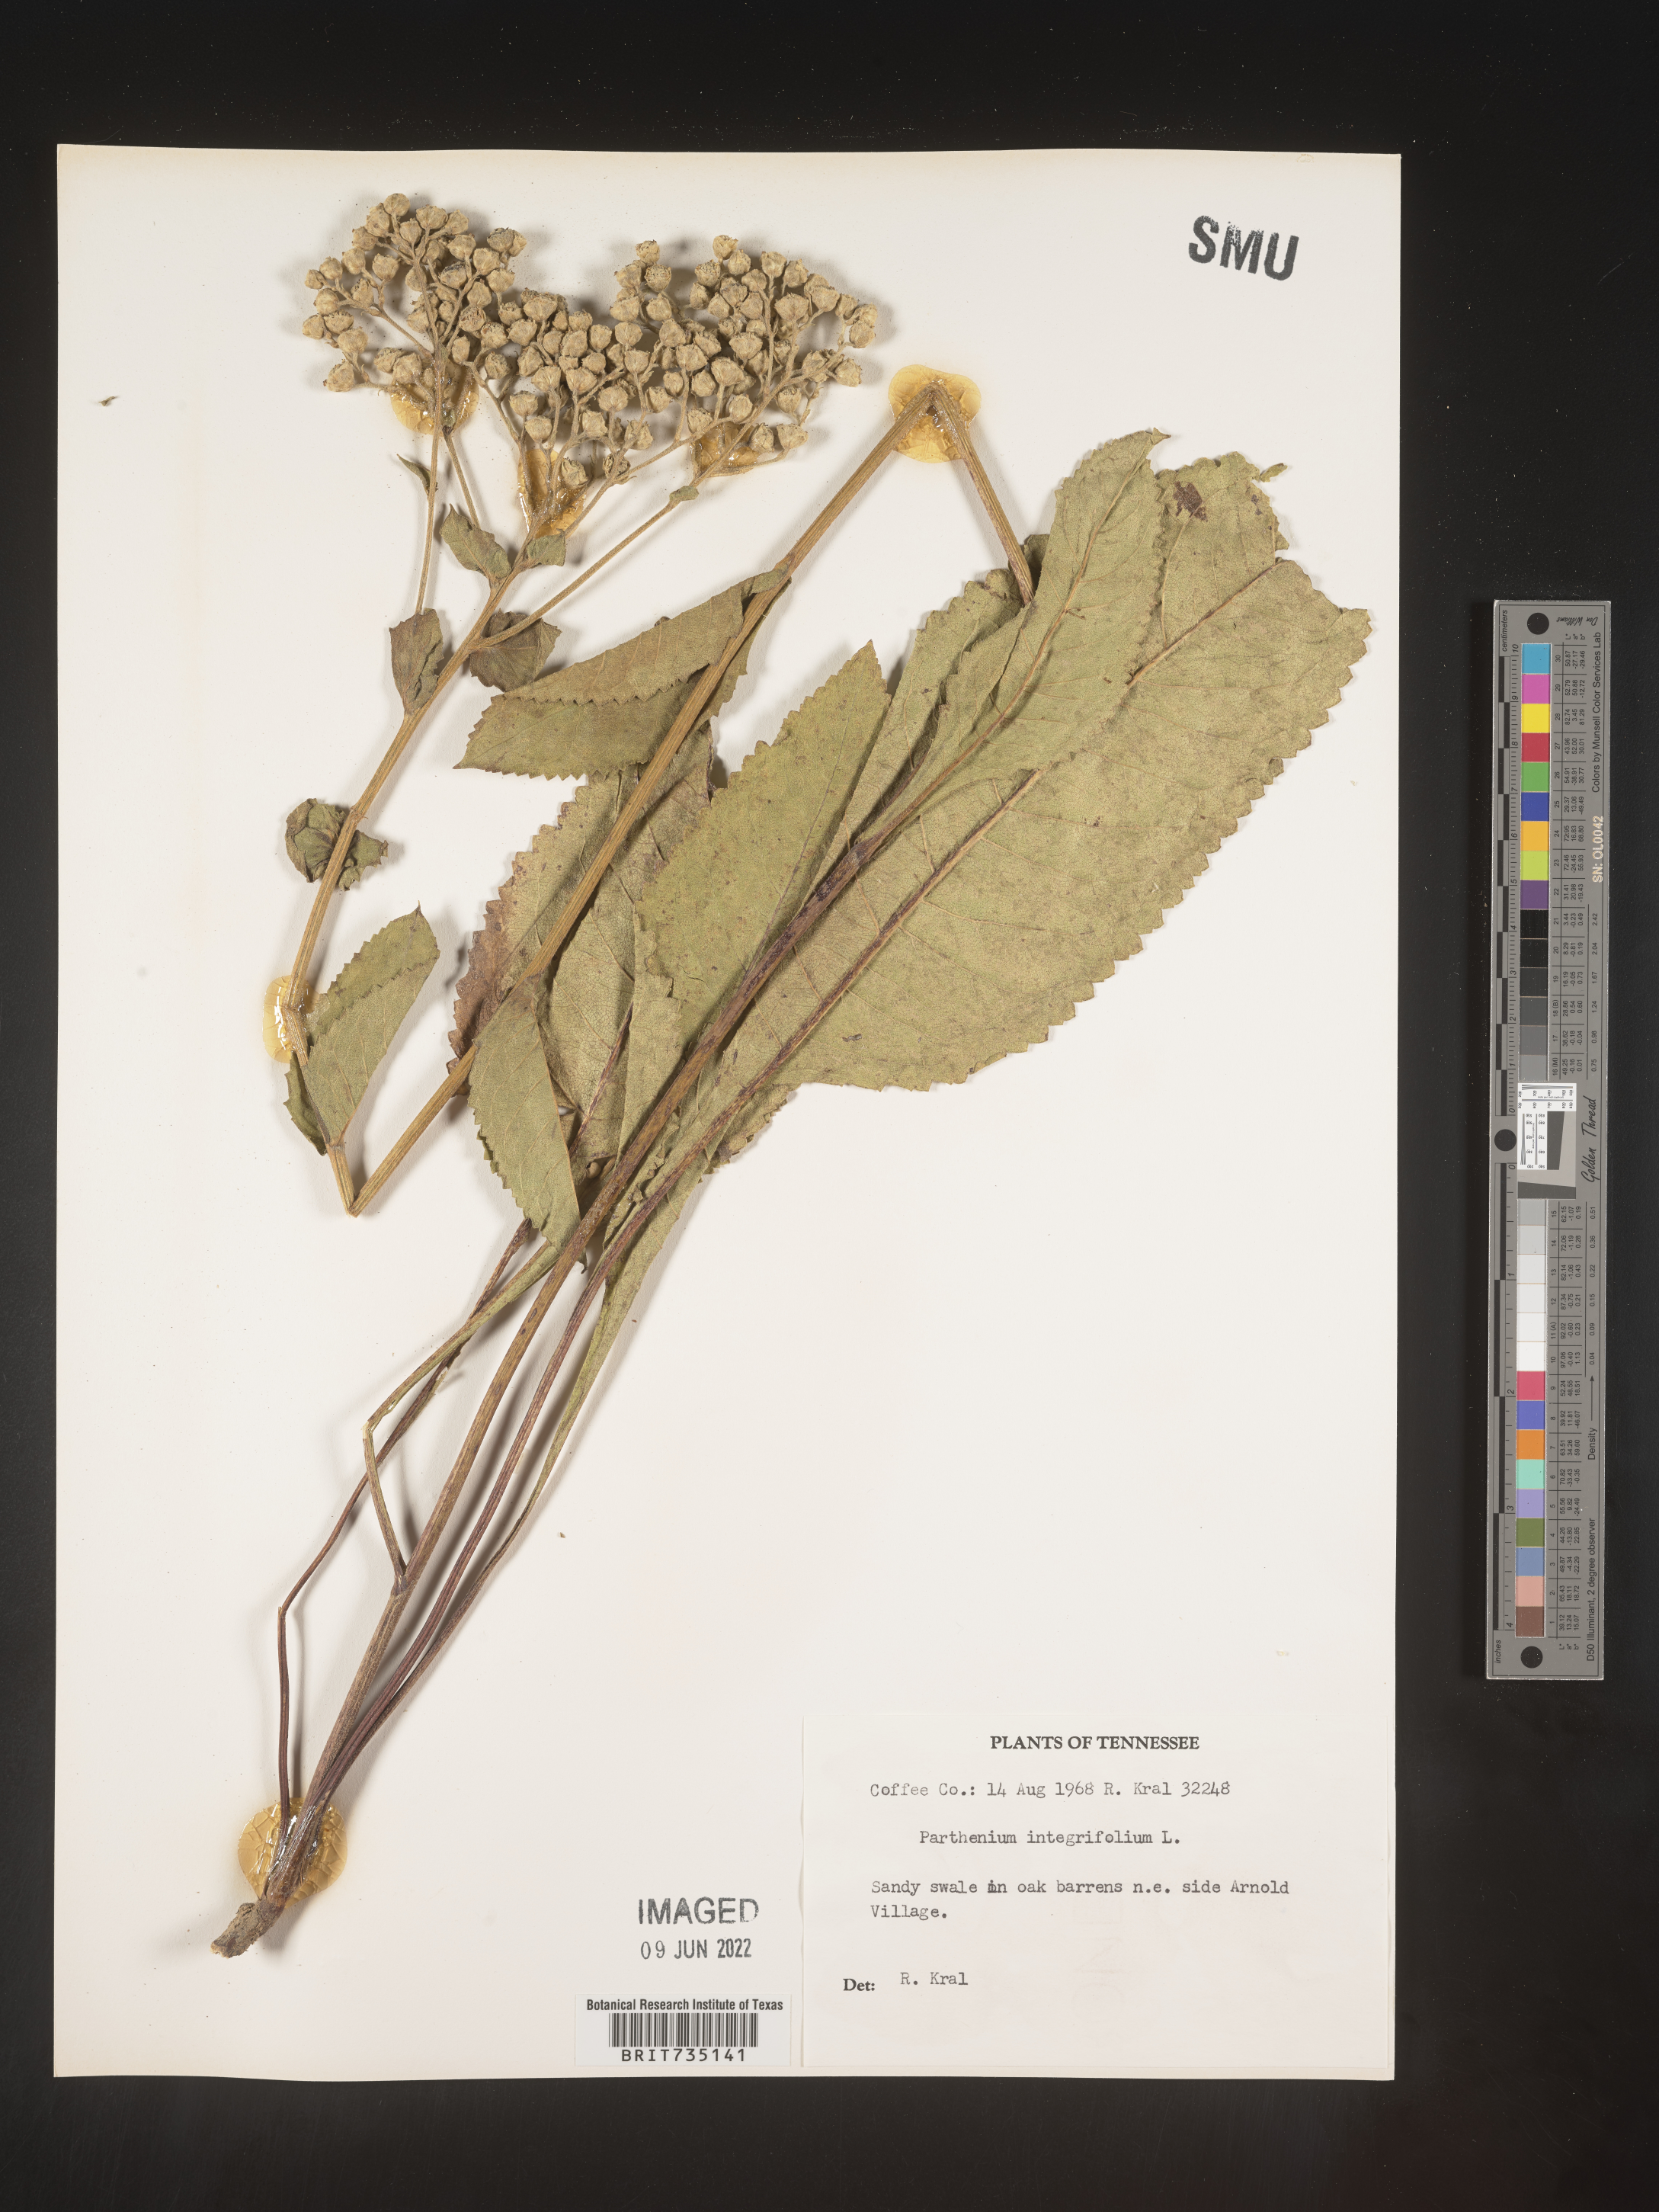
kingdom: Plantae
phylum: Tracheophyta
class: Magnoliopsida
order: Asterales
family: Asteraceae
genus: Parthenium
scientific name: Parthenium integrifolium
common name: American feverfew
